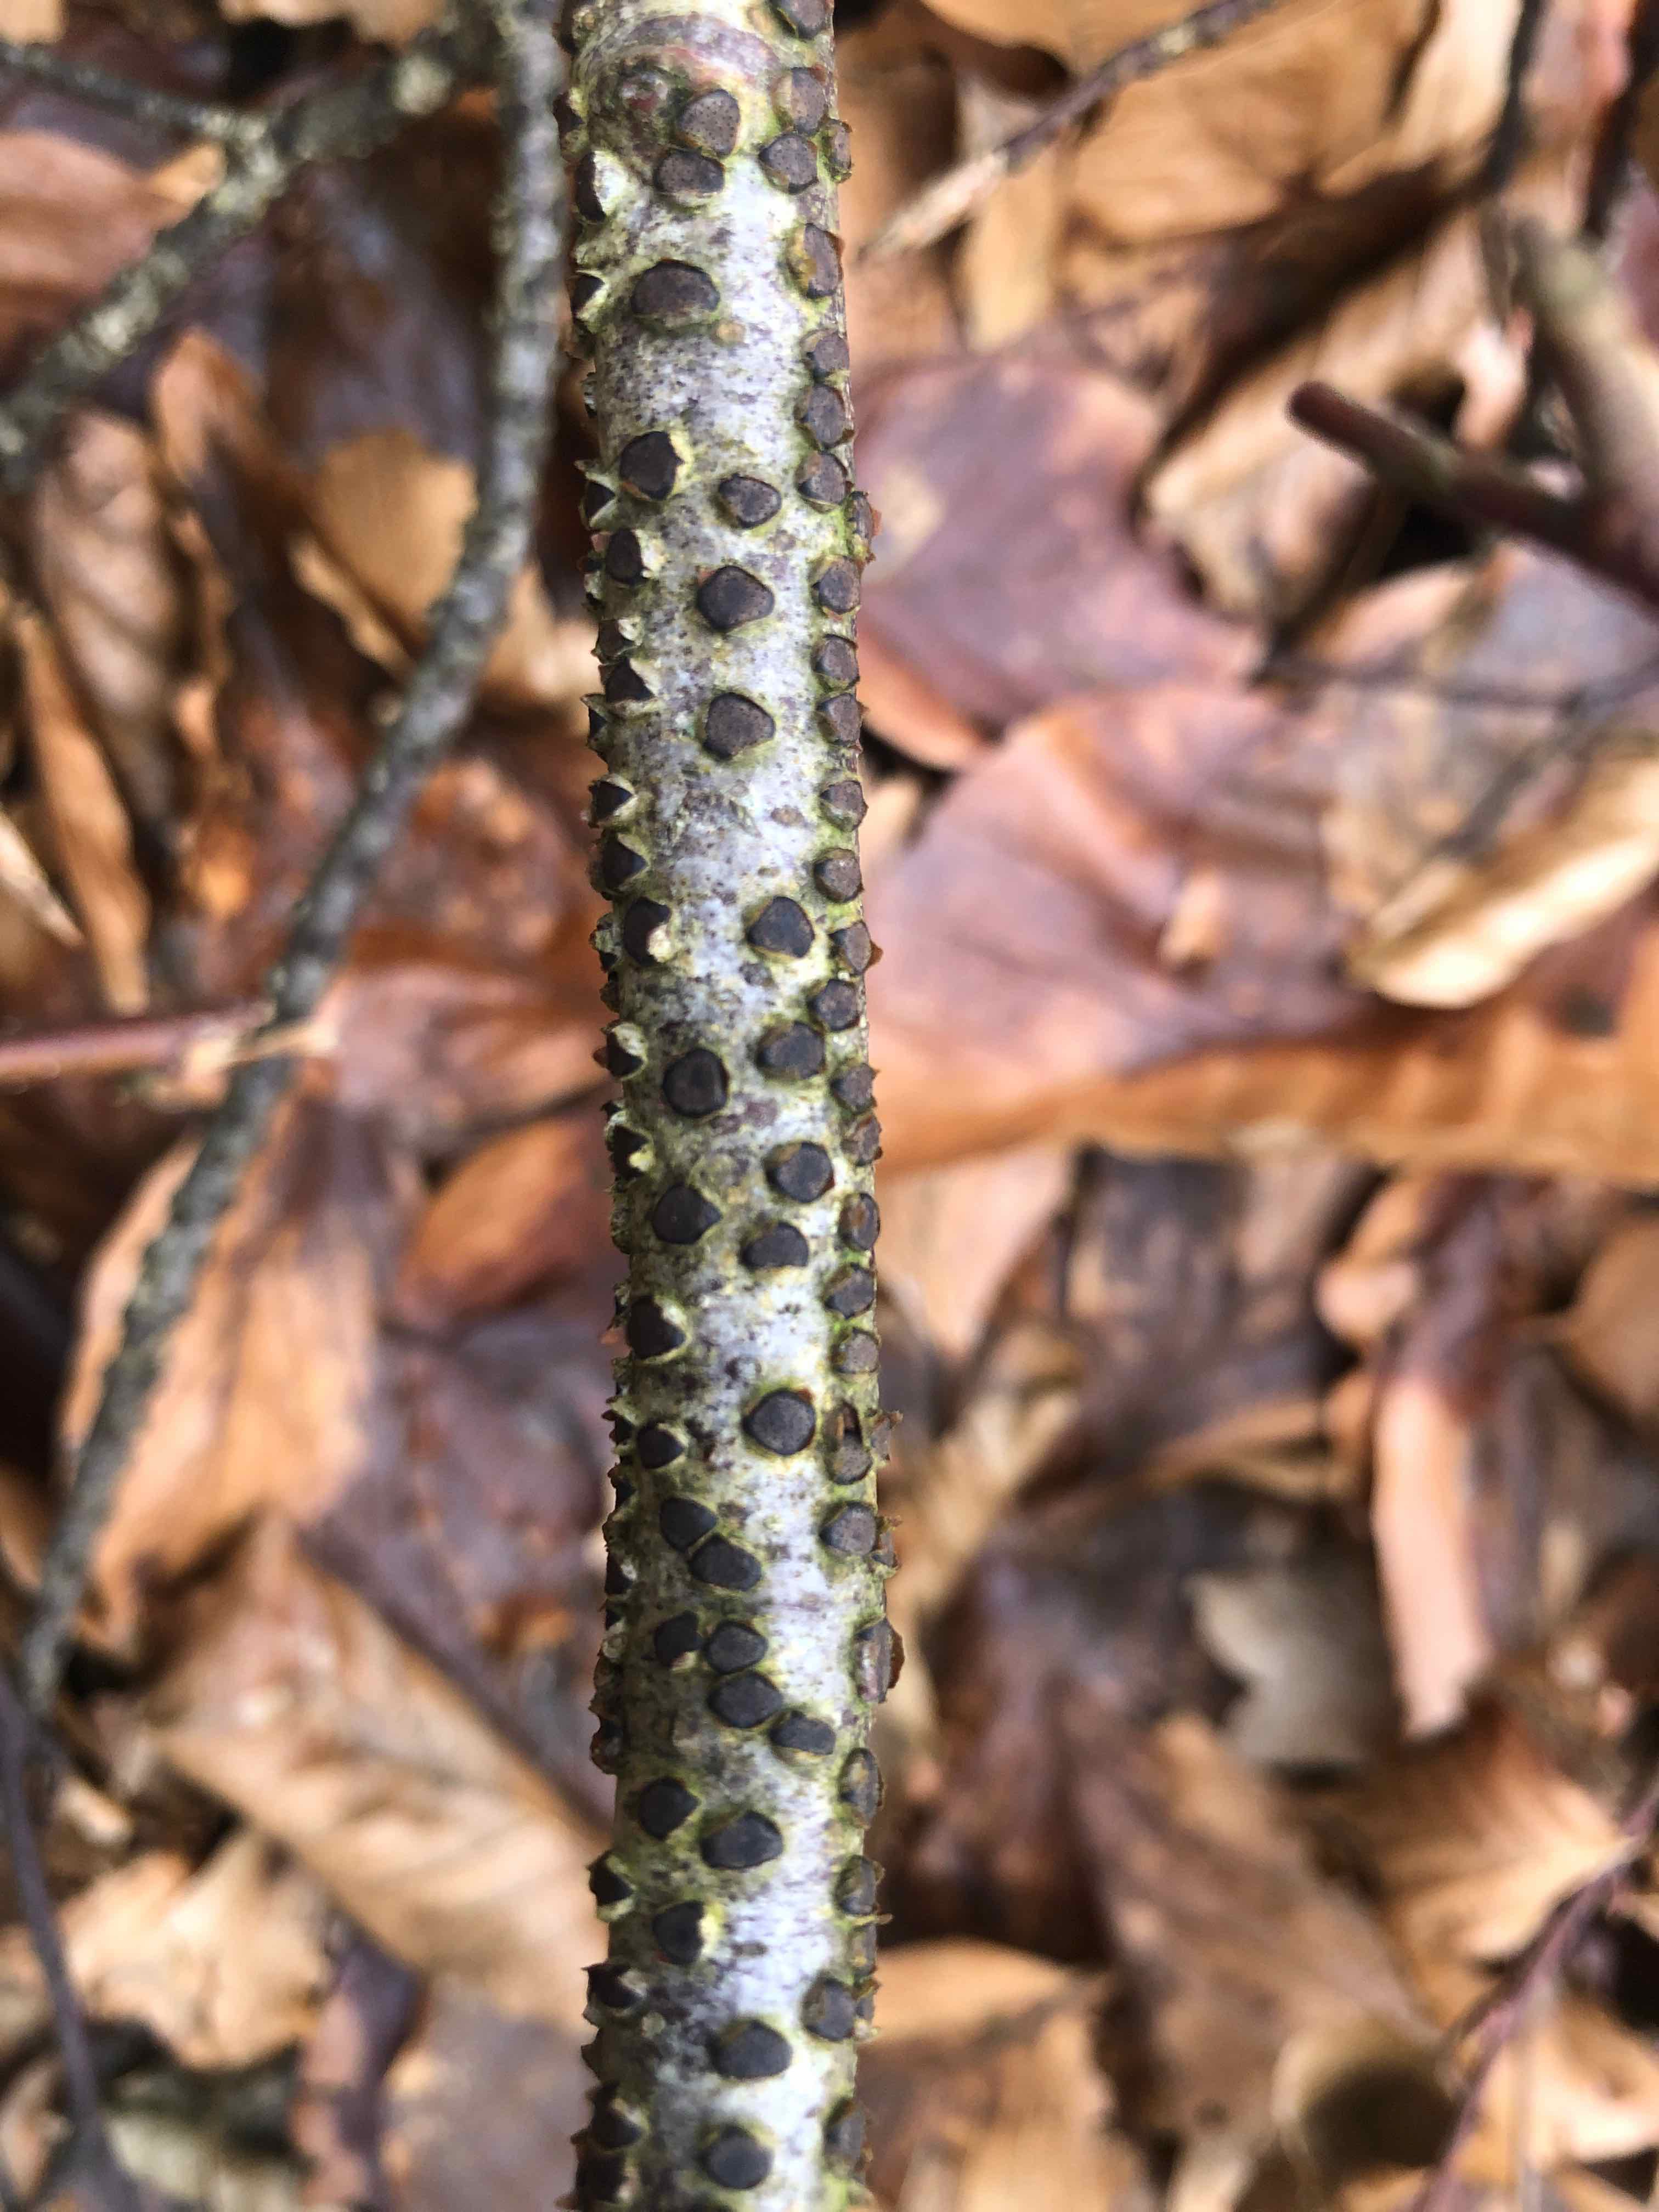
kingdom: Fungi
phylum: Ascomycota
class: Sordariomycetes
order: Xylariales
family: Diatrypaceae
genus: Diatrype
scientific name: Diatrype disciformis
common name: kant-kulskorpe
